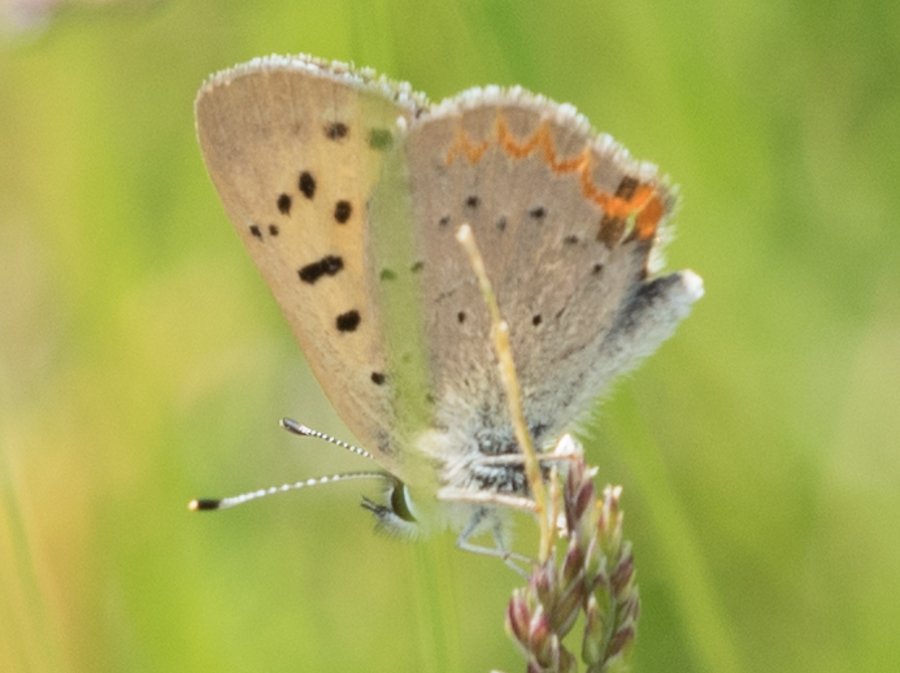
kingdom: Animalia
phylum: Arthropoda
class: Insecta
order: Lepidoptera
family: Sesiidae
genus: Sesia
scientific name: Sesia Lycaena helloides
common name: Purplish Copper
